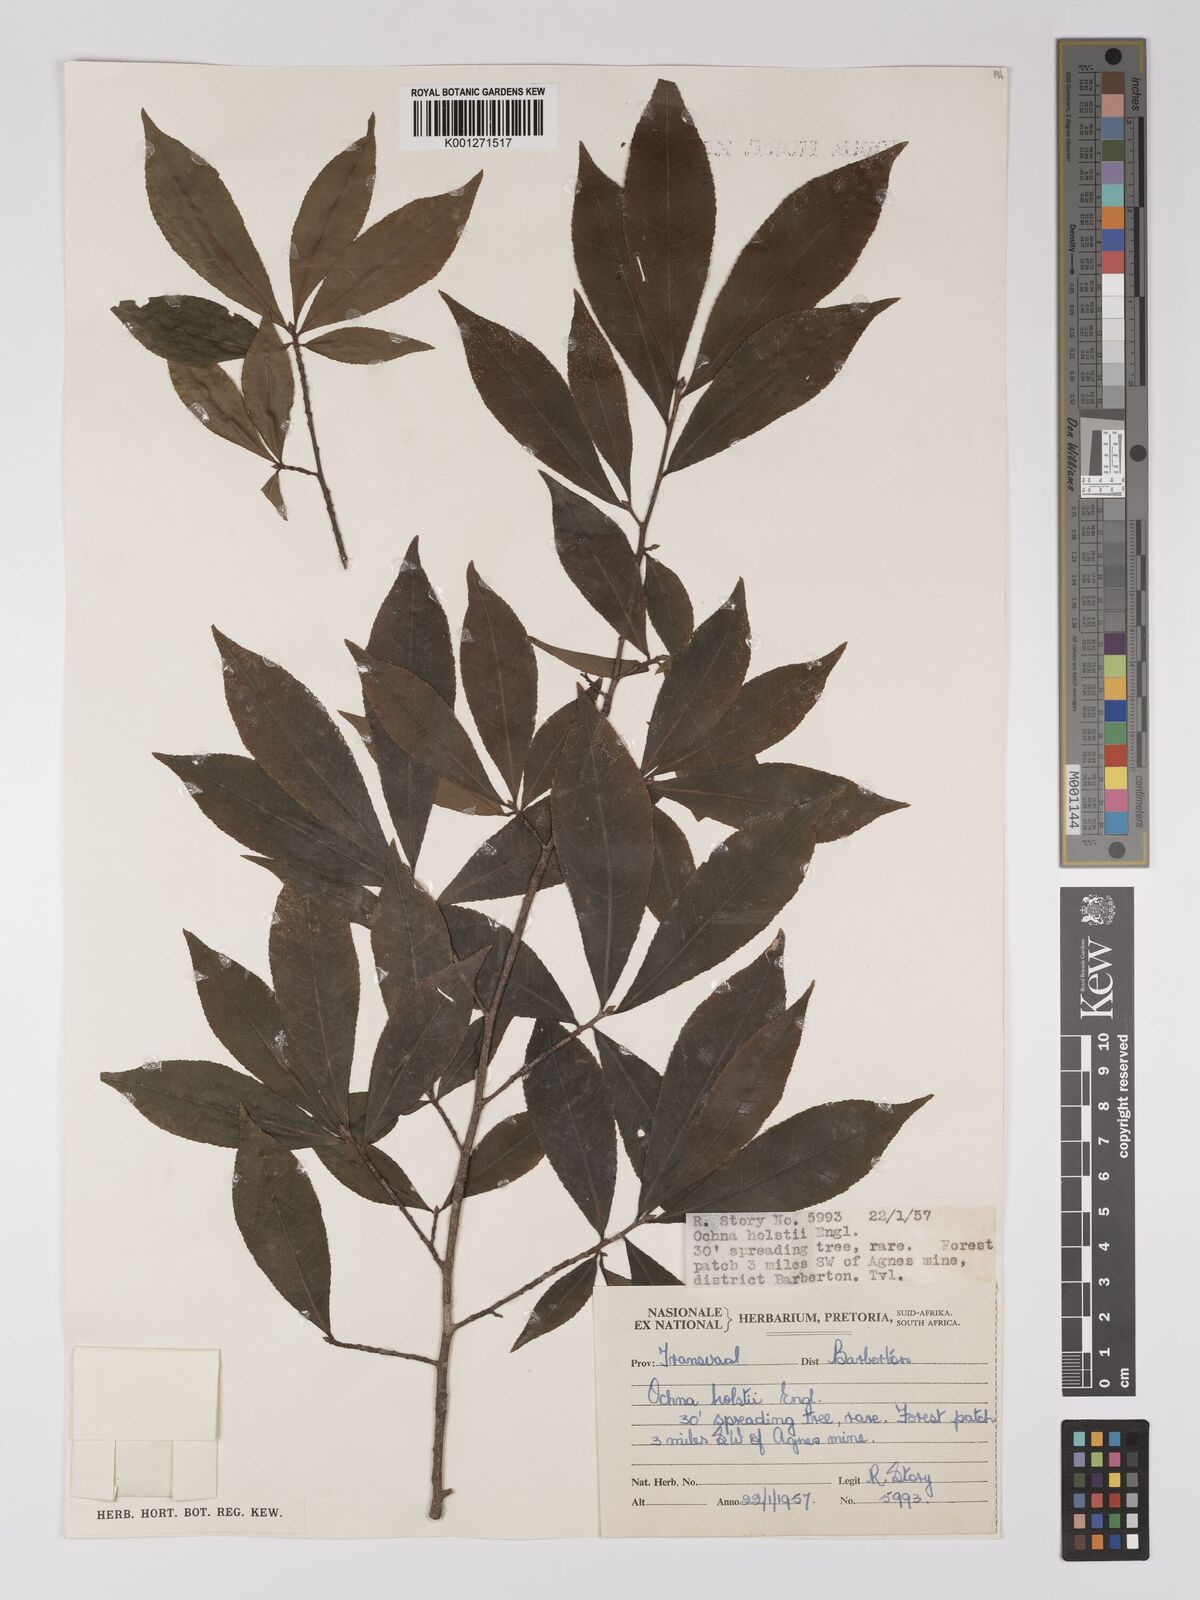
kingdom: Plantae
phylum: Tracheophyta
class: Magnoliopsida
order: Malpighiales
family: Ochnaceae
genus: Ochna
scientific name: Ochna holstii
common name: Red ironwood
